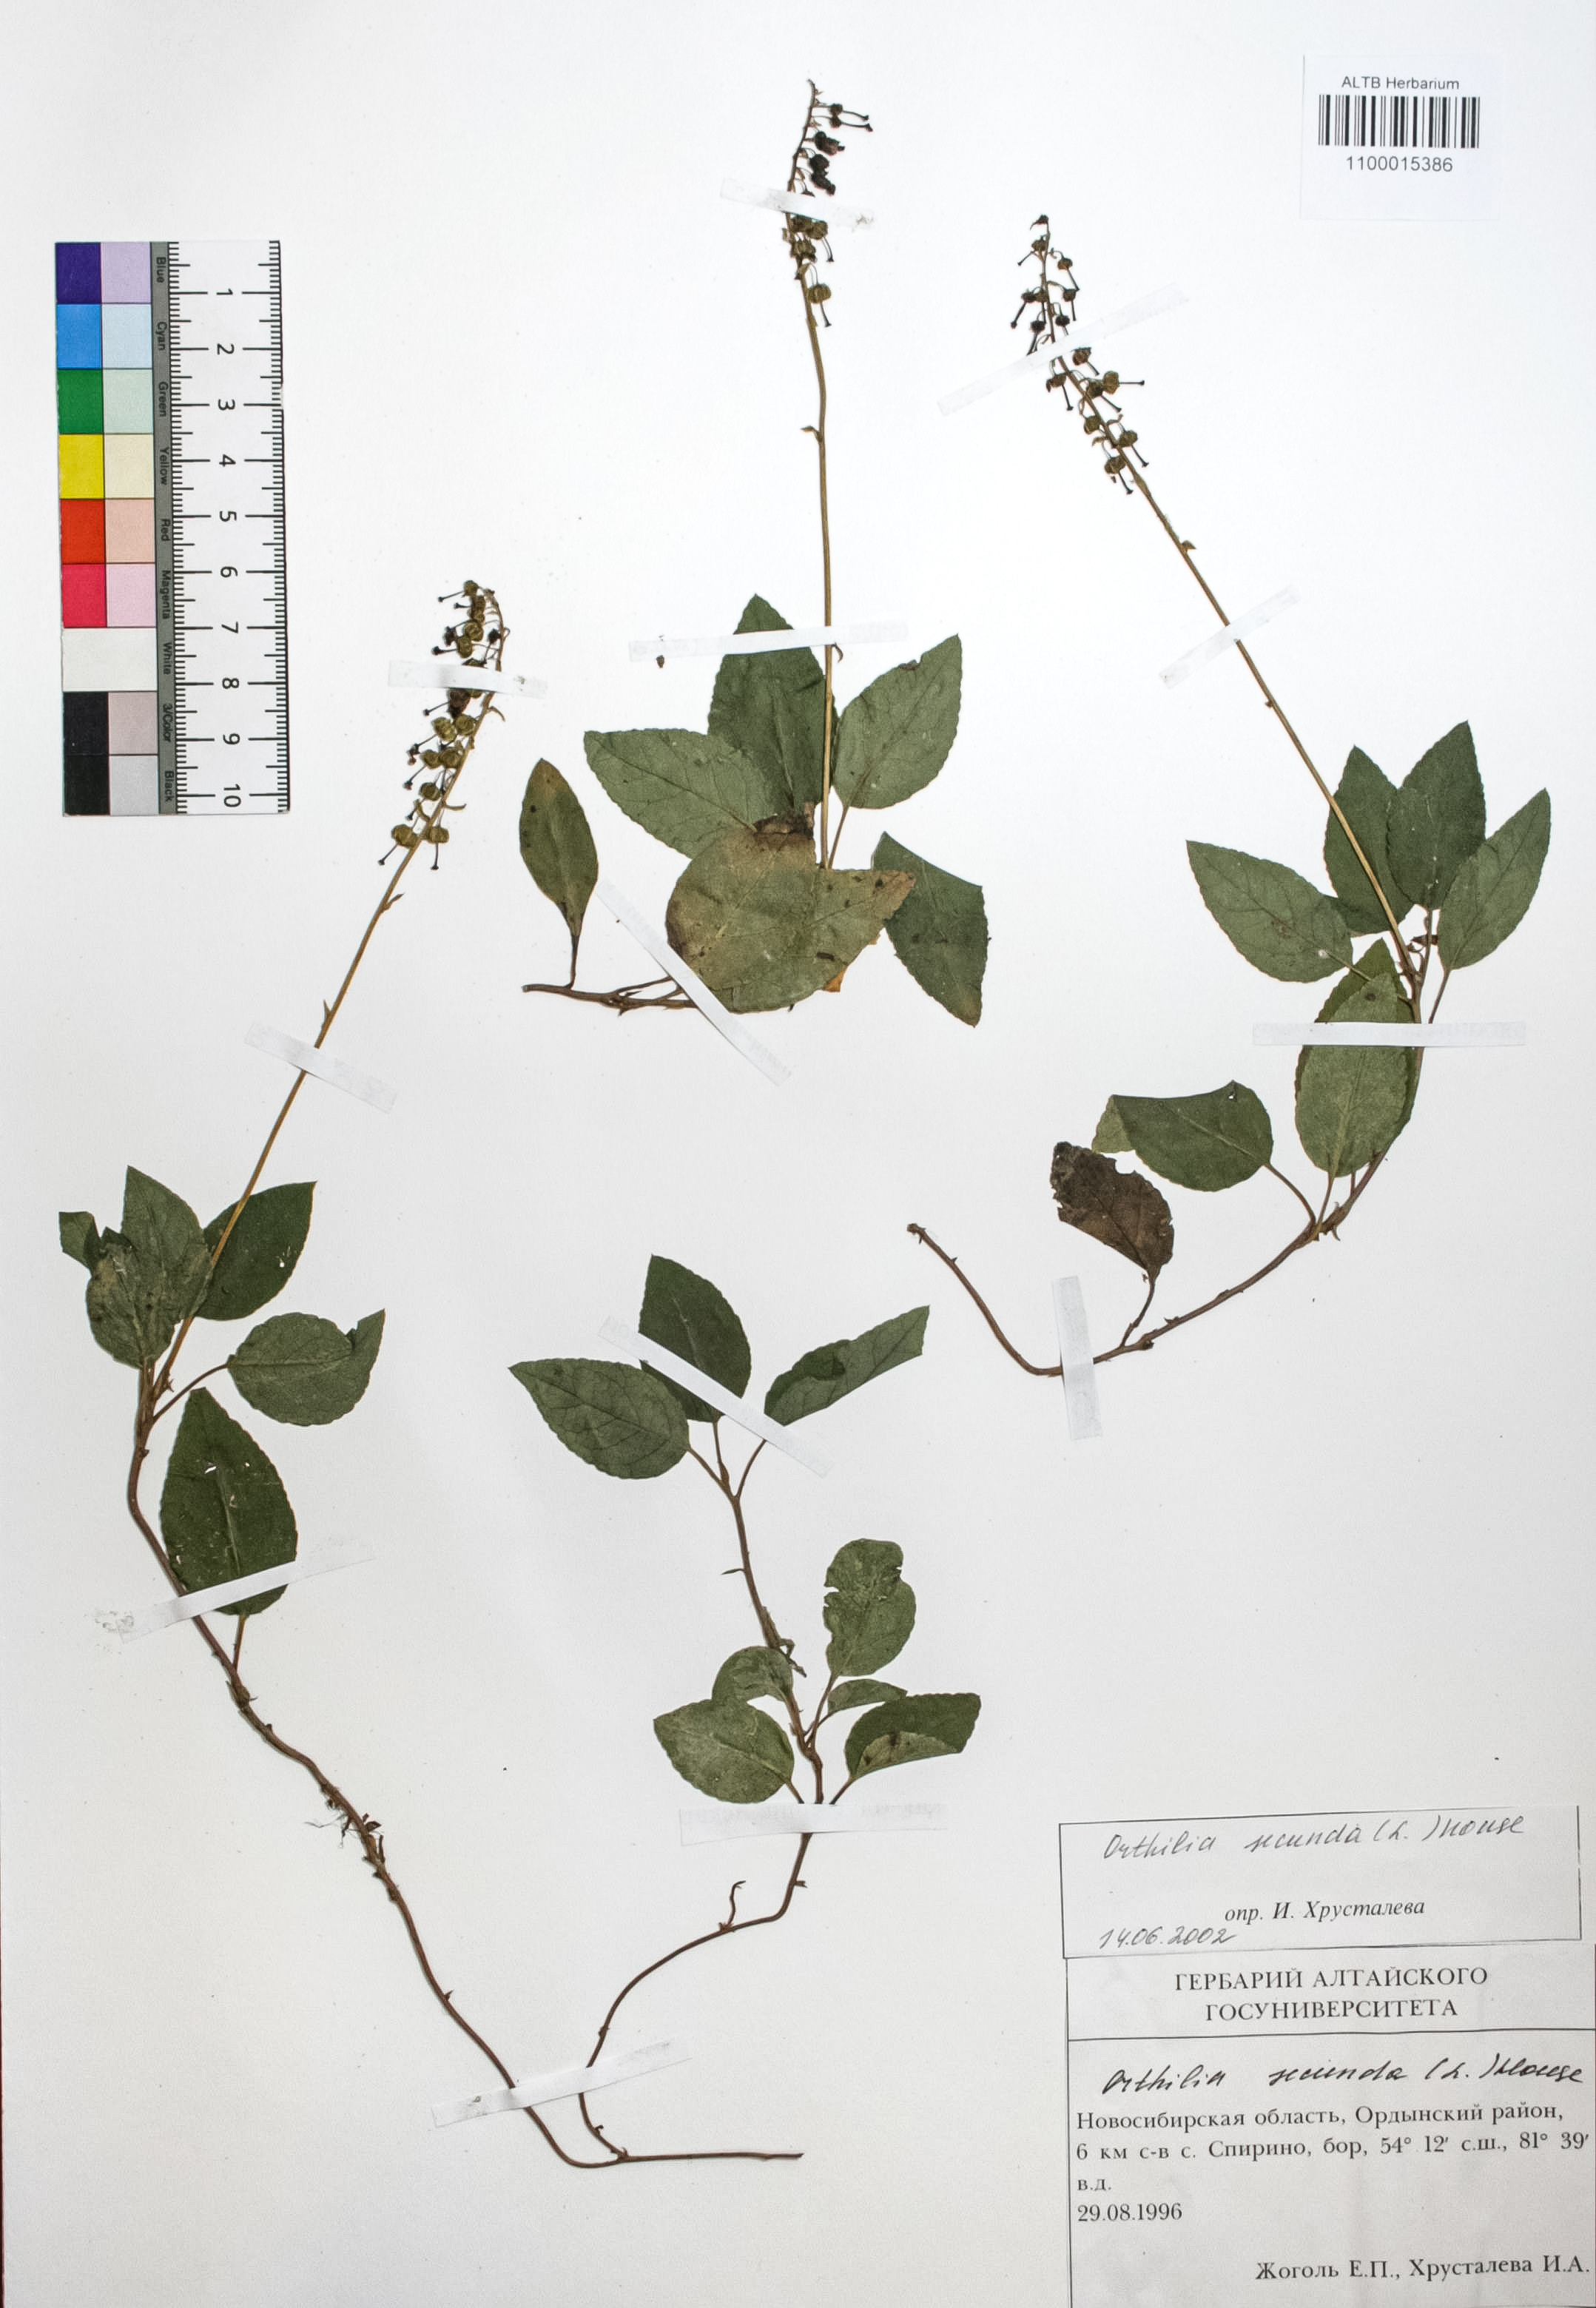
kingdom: Plantae
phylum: Tracheophyta
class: Magnoliopsida
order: Ericales
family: Ericaceae
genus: Orthilia
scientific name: Orthilia secunda
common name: One-sided orthilia
